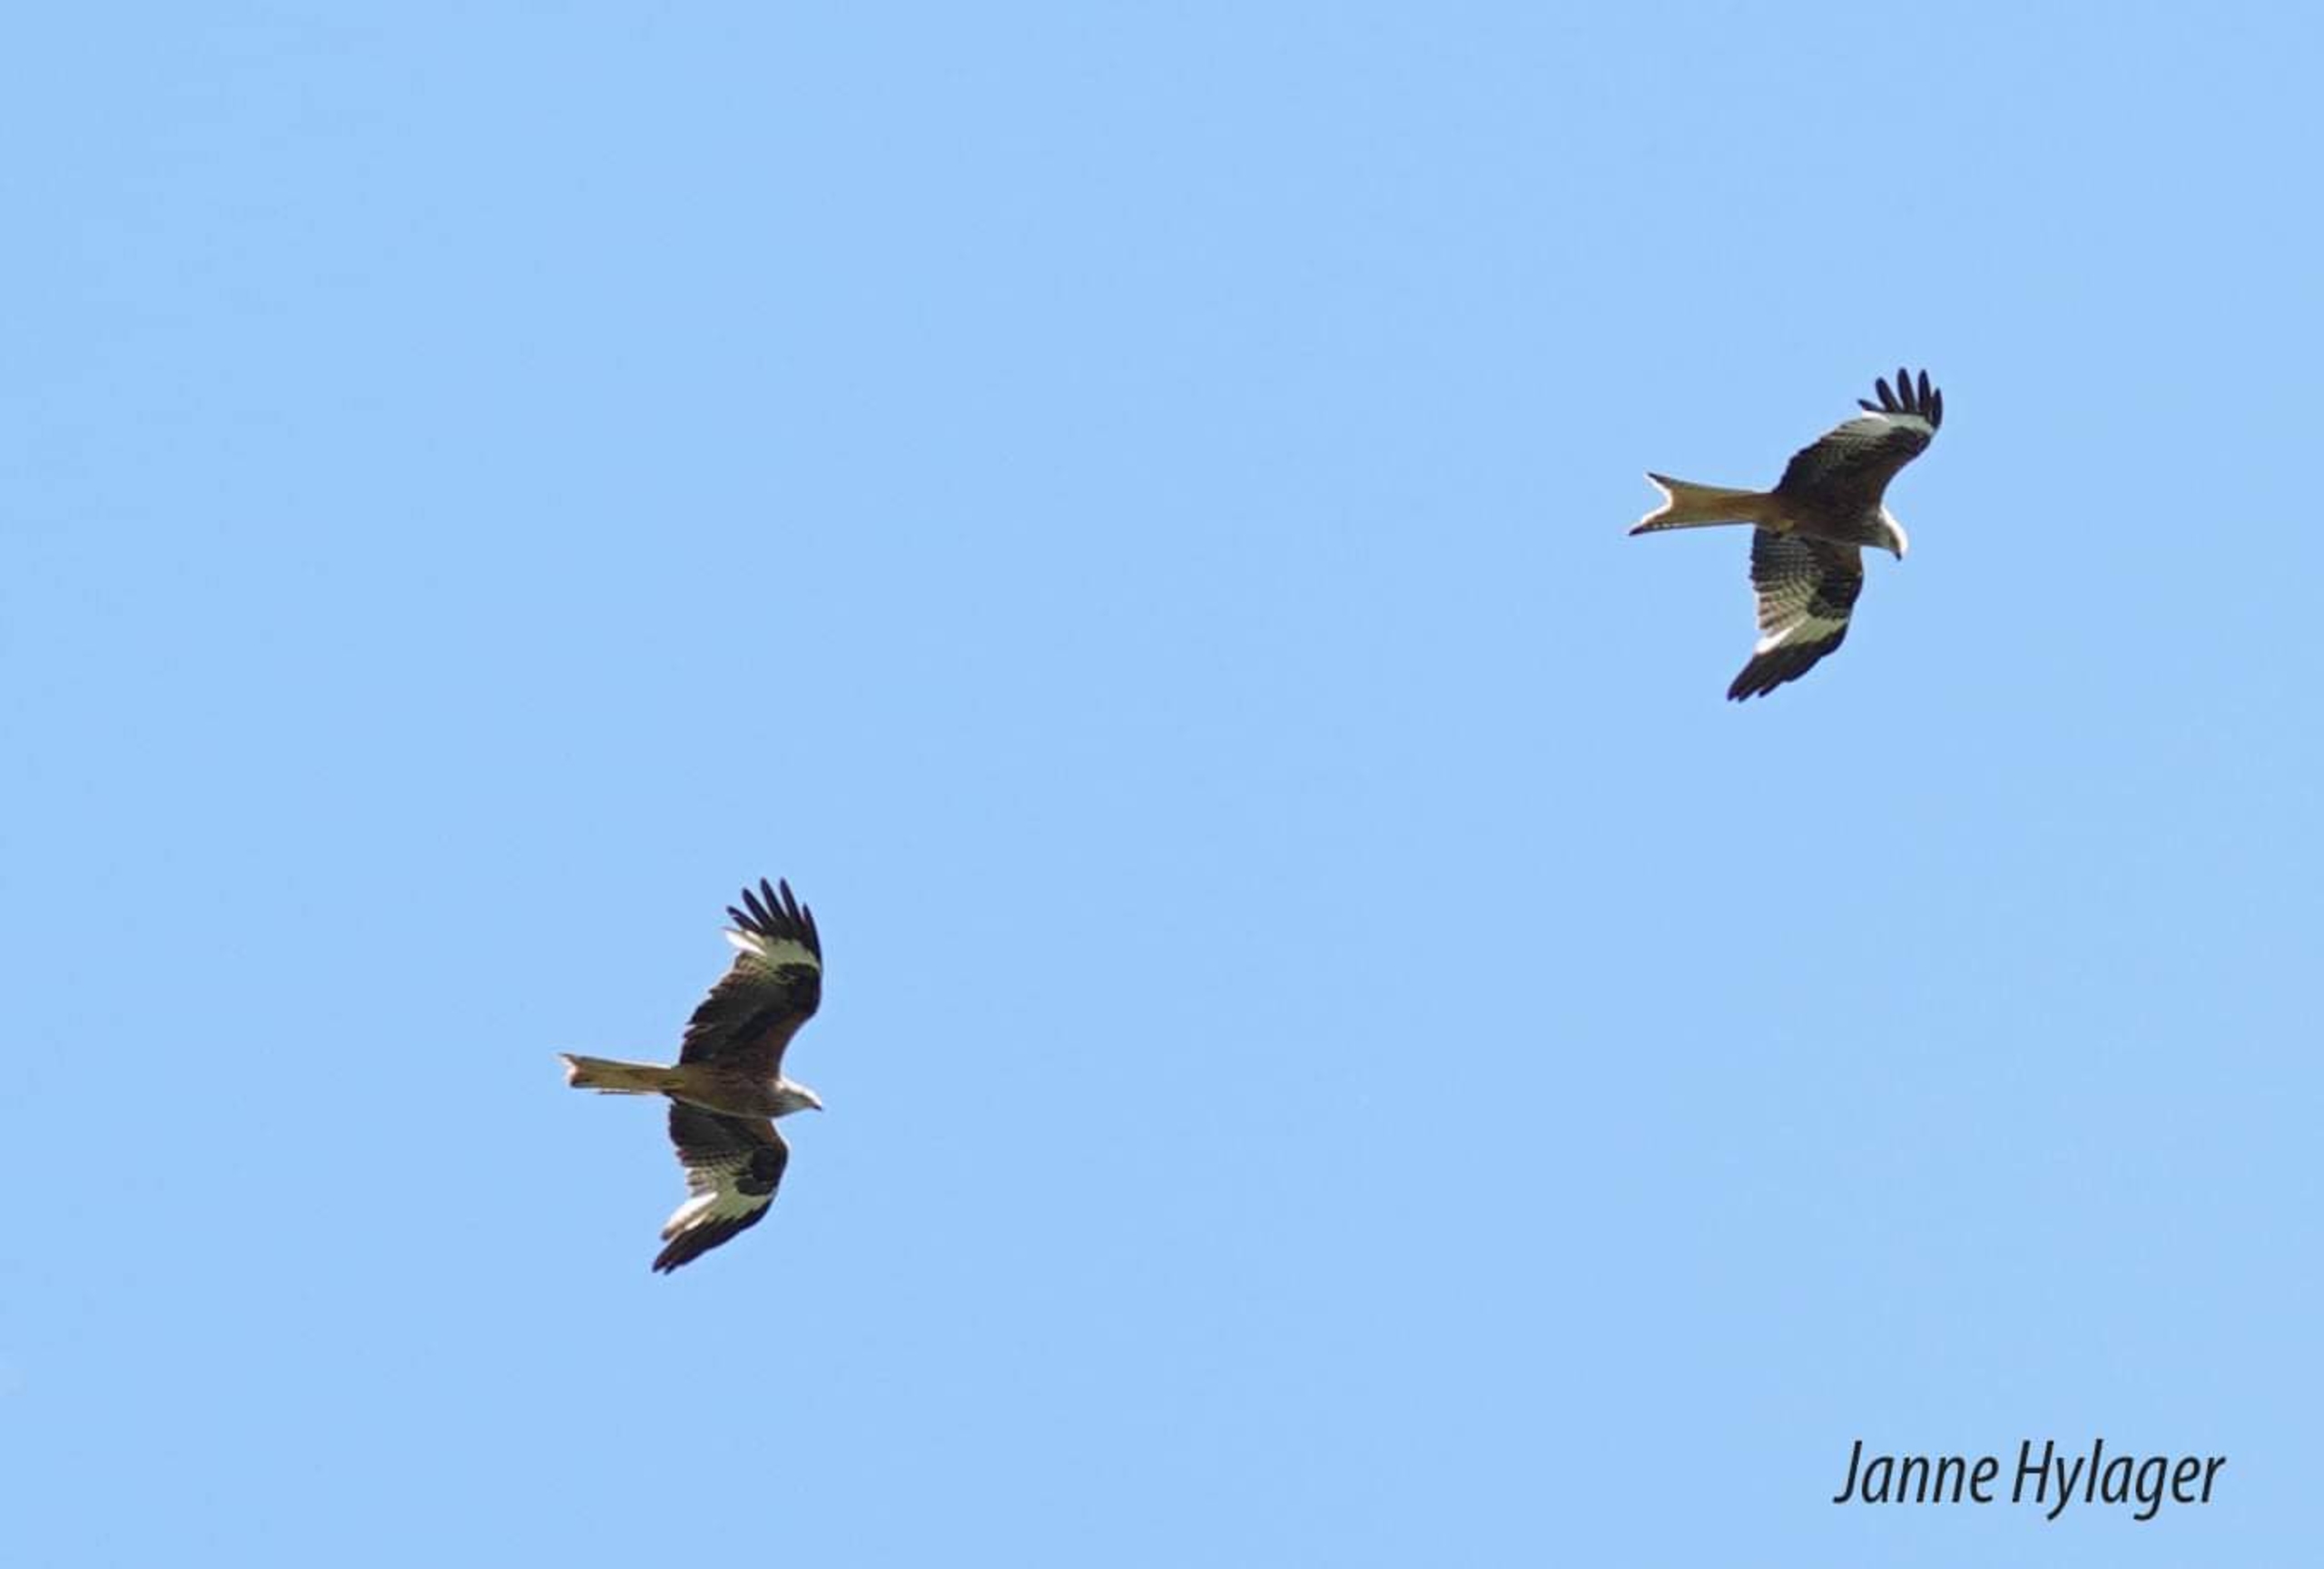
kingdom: Animalia
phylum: Chordata
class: Aves
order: Accipitriformes
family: Accipitridae
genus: Milvus
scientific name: Milvus milvus
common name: Rød glente
